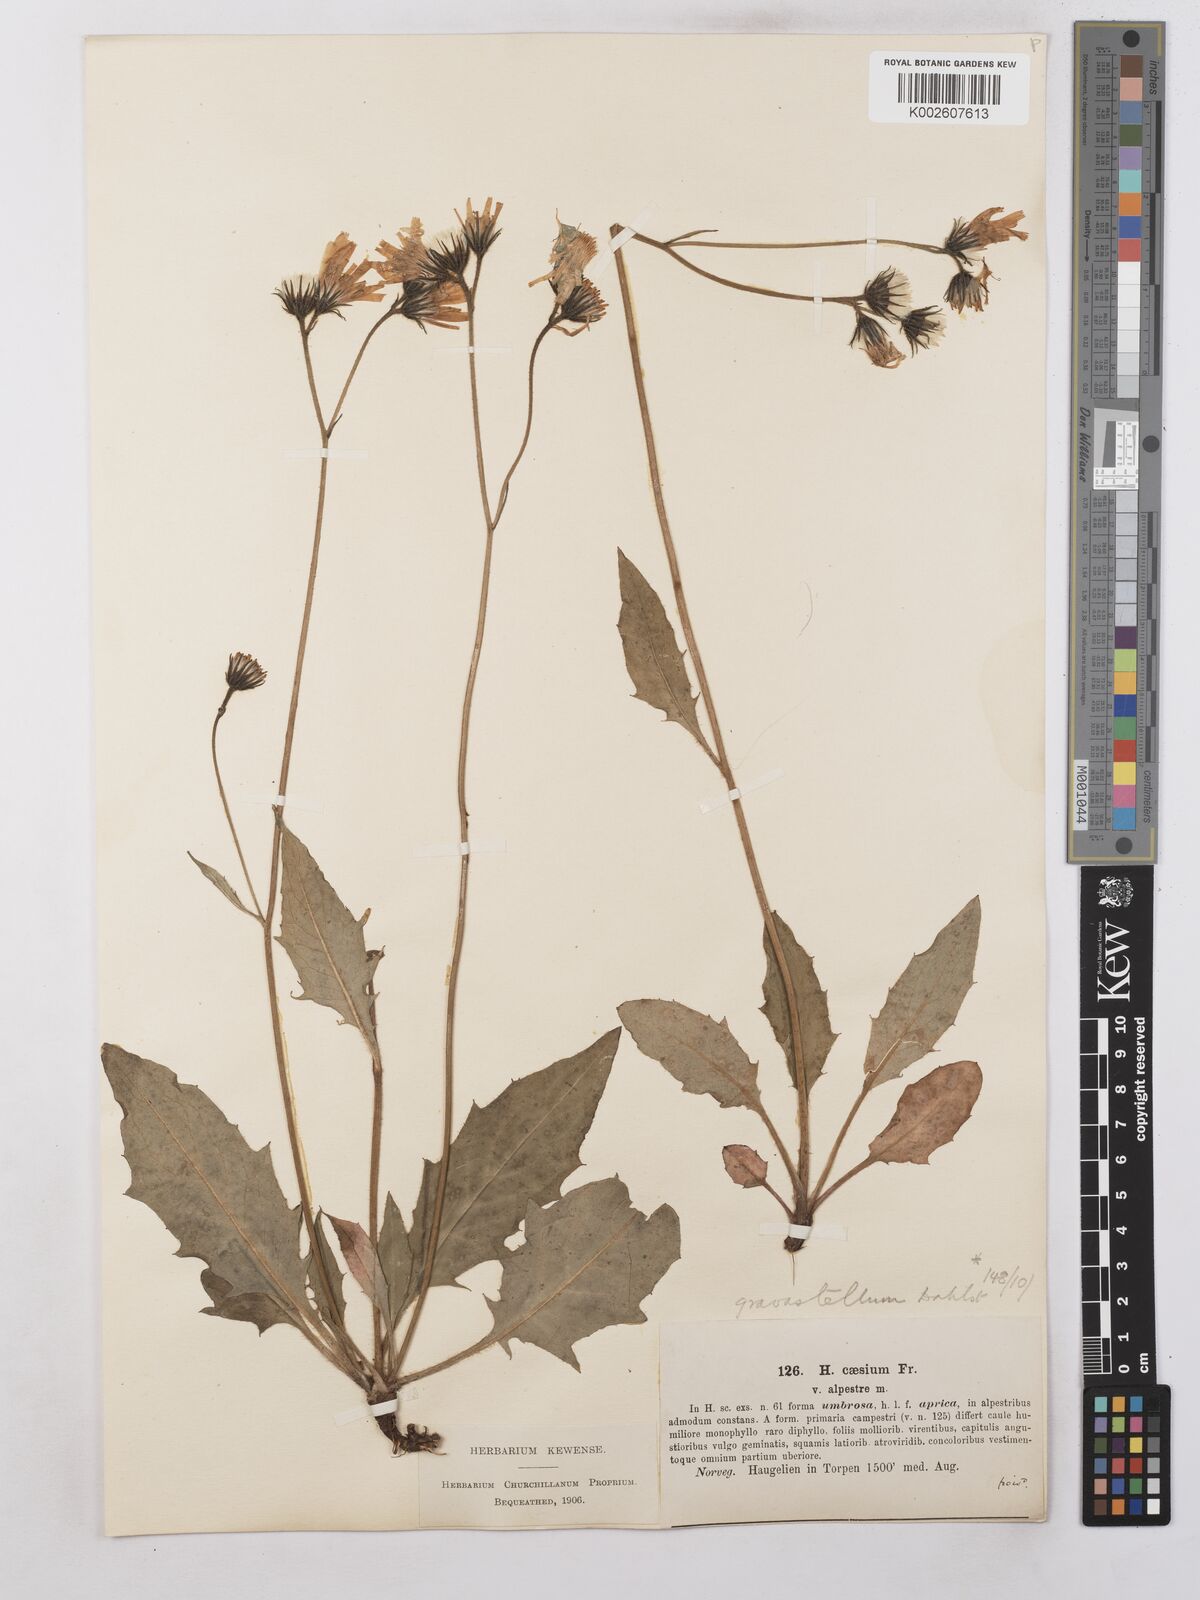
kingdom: Plantae
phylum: Tracheophyta
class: Magnoliopsida
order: Asterales
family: Asteraceae
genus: Hieracium
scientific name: Hieracium subramosum
